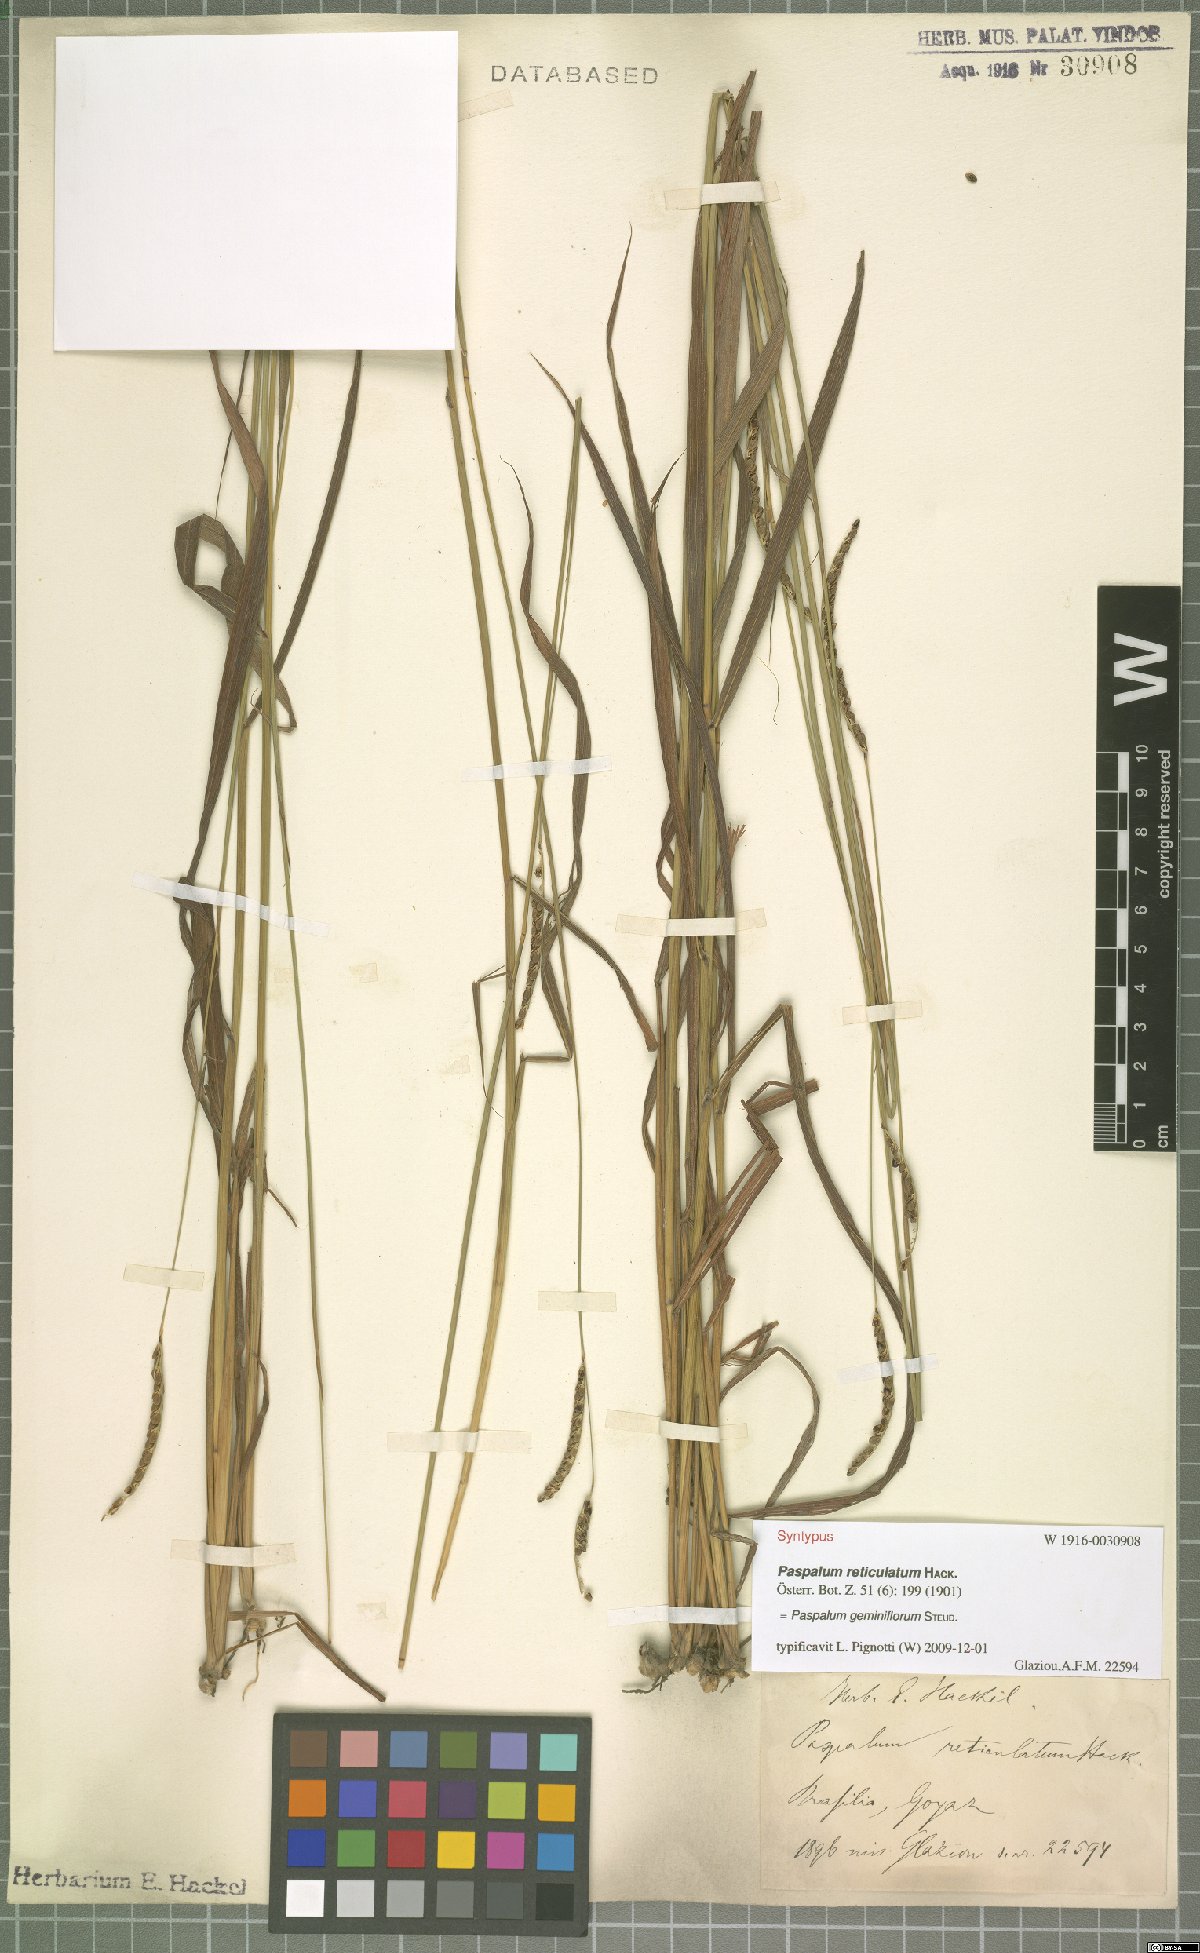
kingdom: Plantae
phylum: Tracheophyta
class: Liliopsida
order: Poales
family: Poaceae
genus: Paspalum
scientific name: Paspalum geminiflorum
